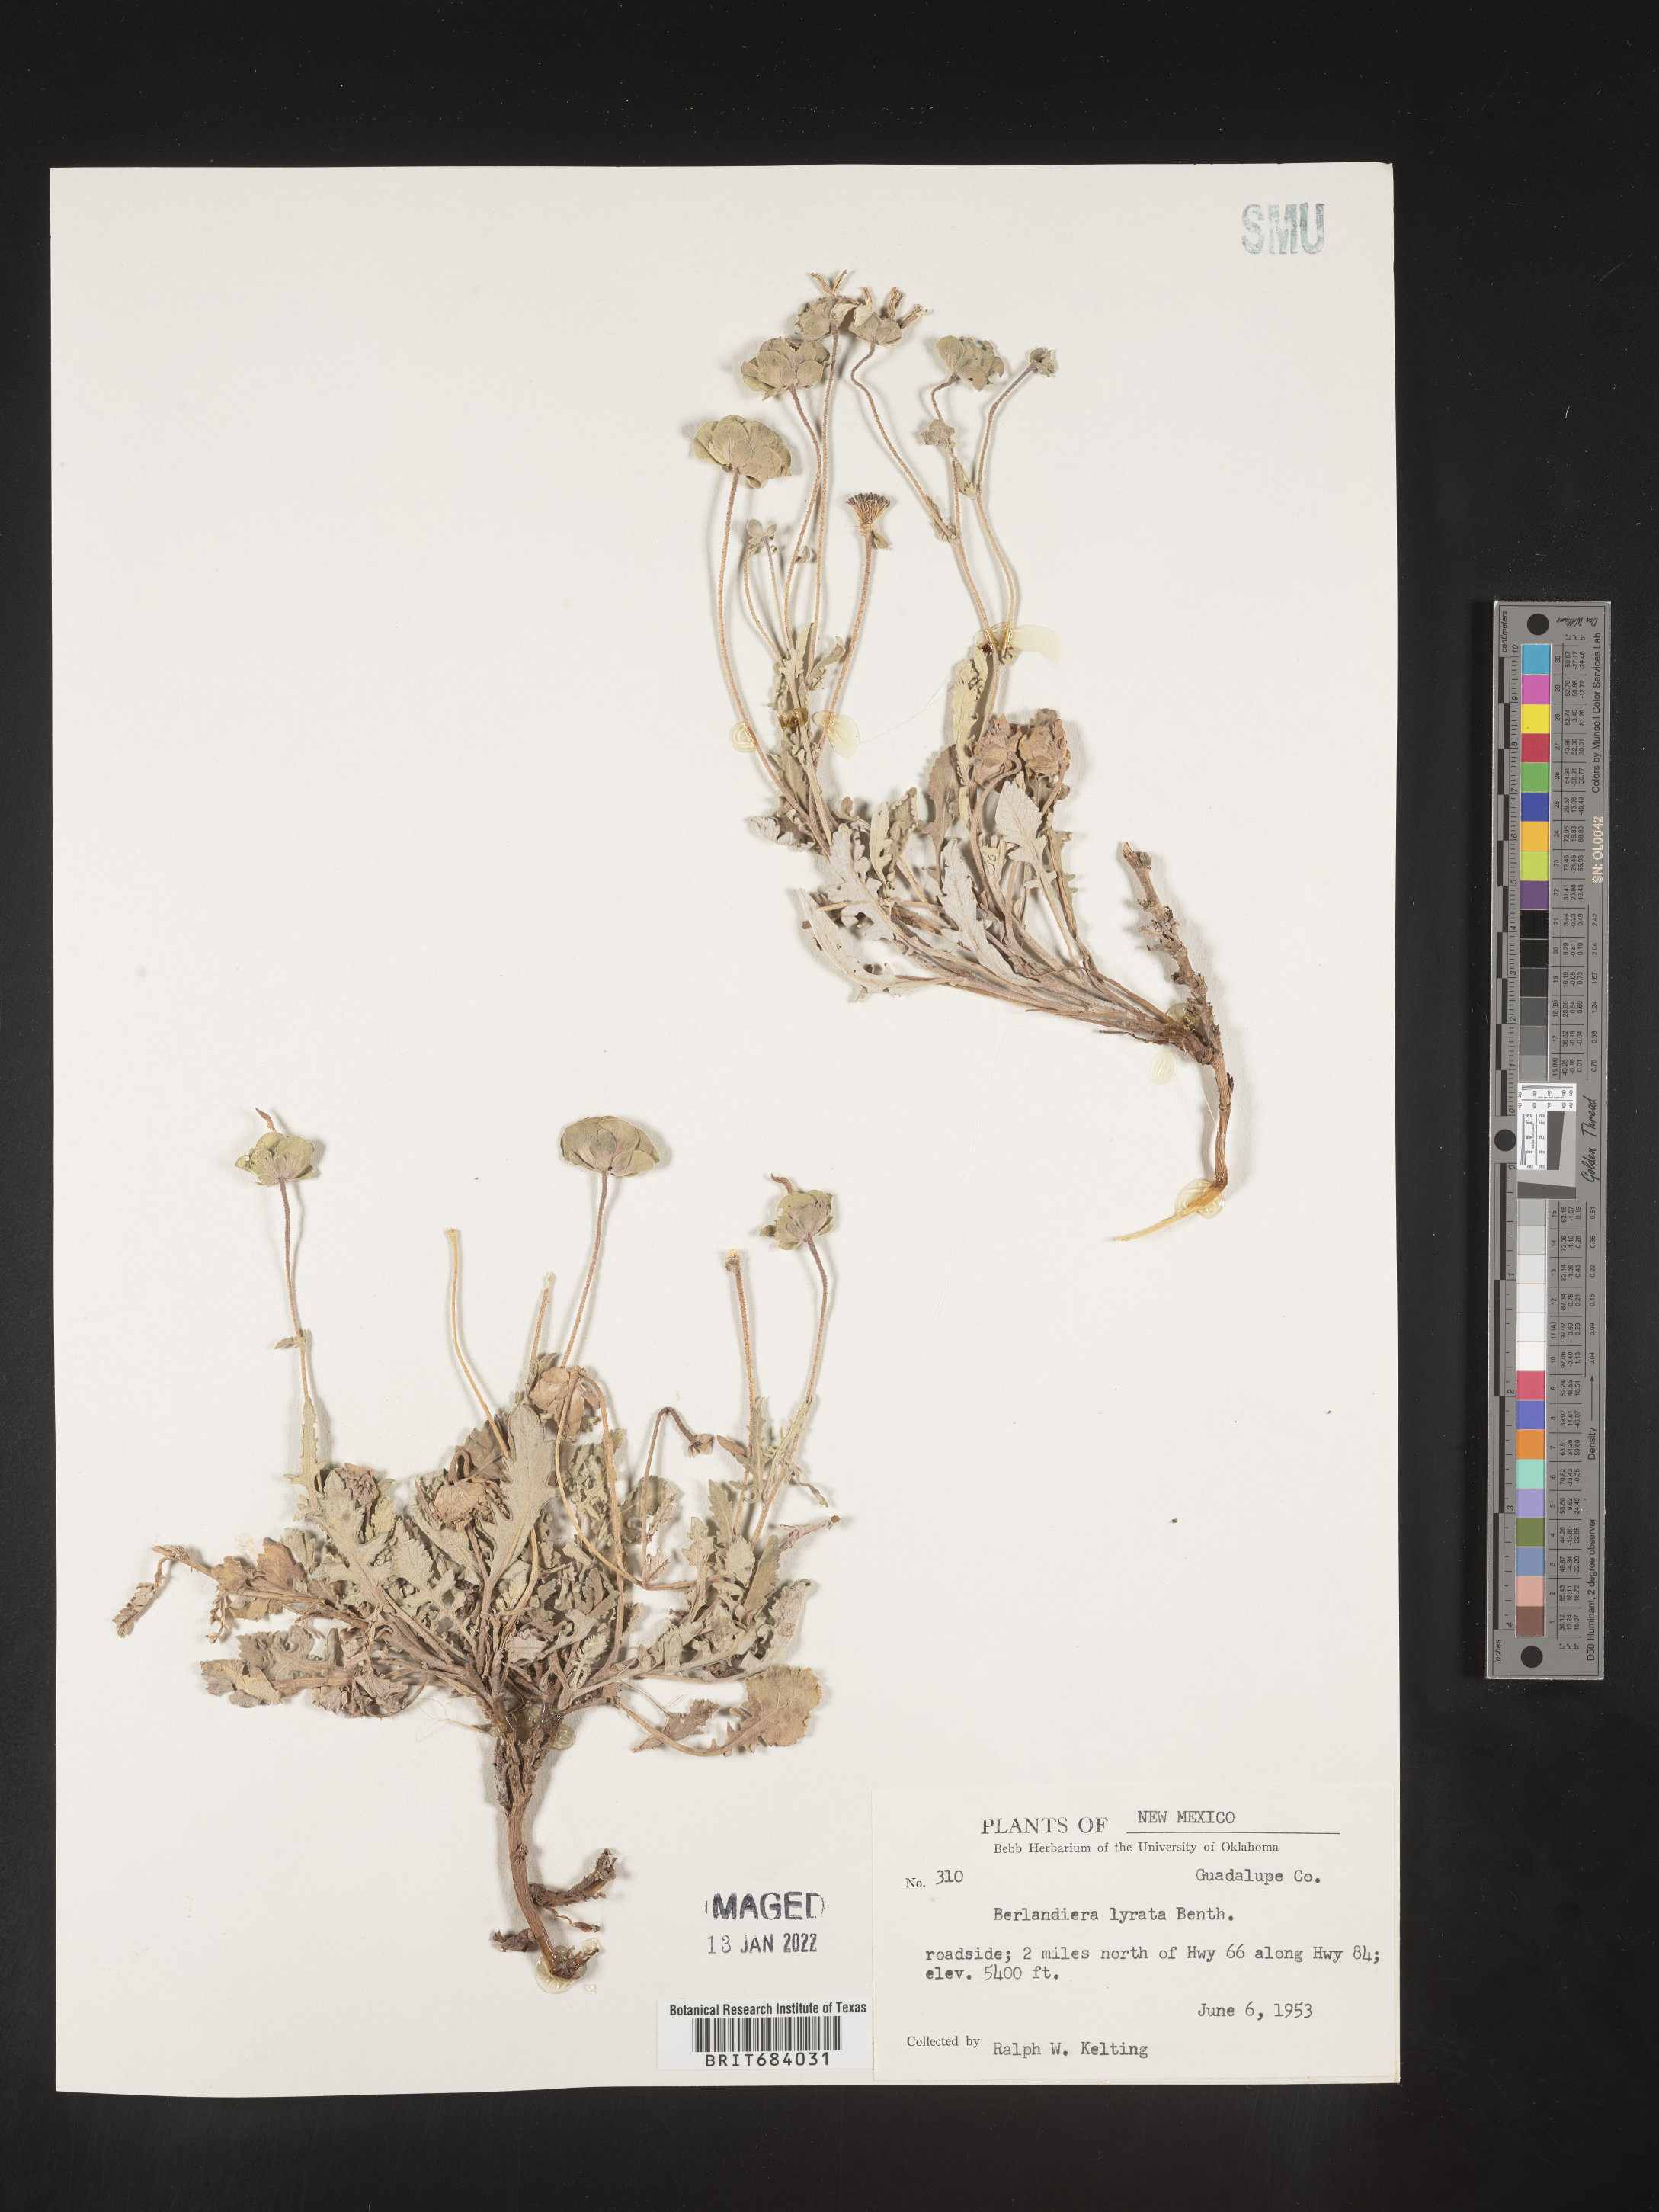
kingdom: Plantae
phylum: Tracheophyta
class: Magnoliopsida
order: Asterales
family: Asteraceae
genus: Berlandiera
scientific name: Berlandiera lyrata
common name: Chocolate-flower
